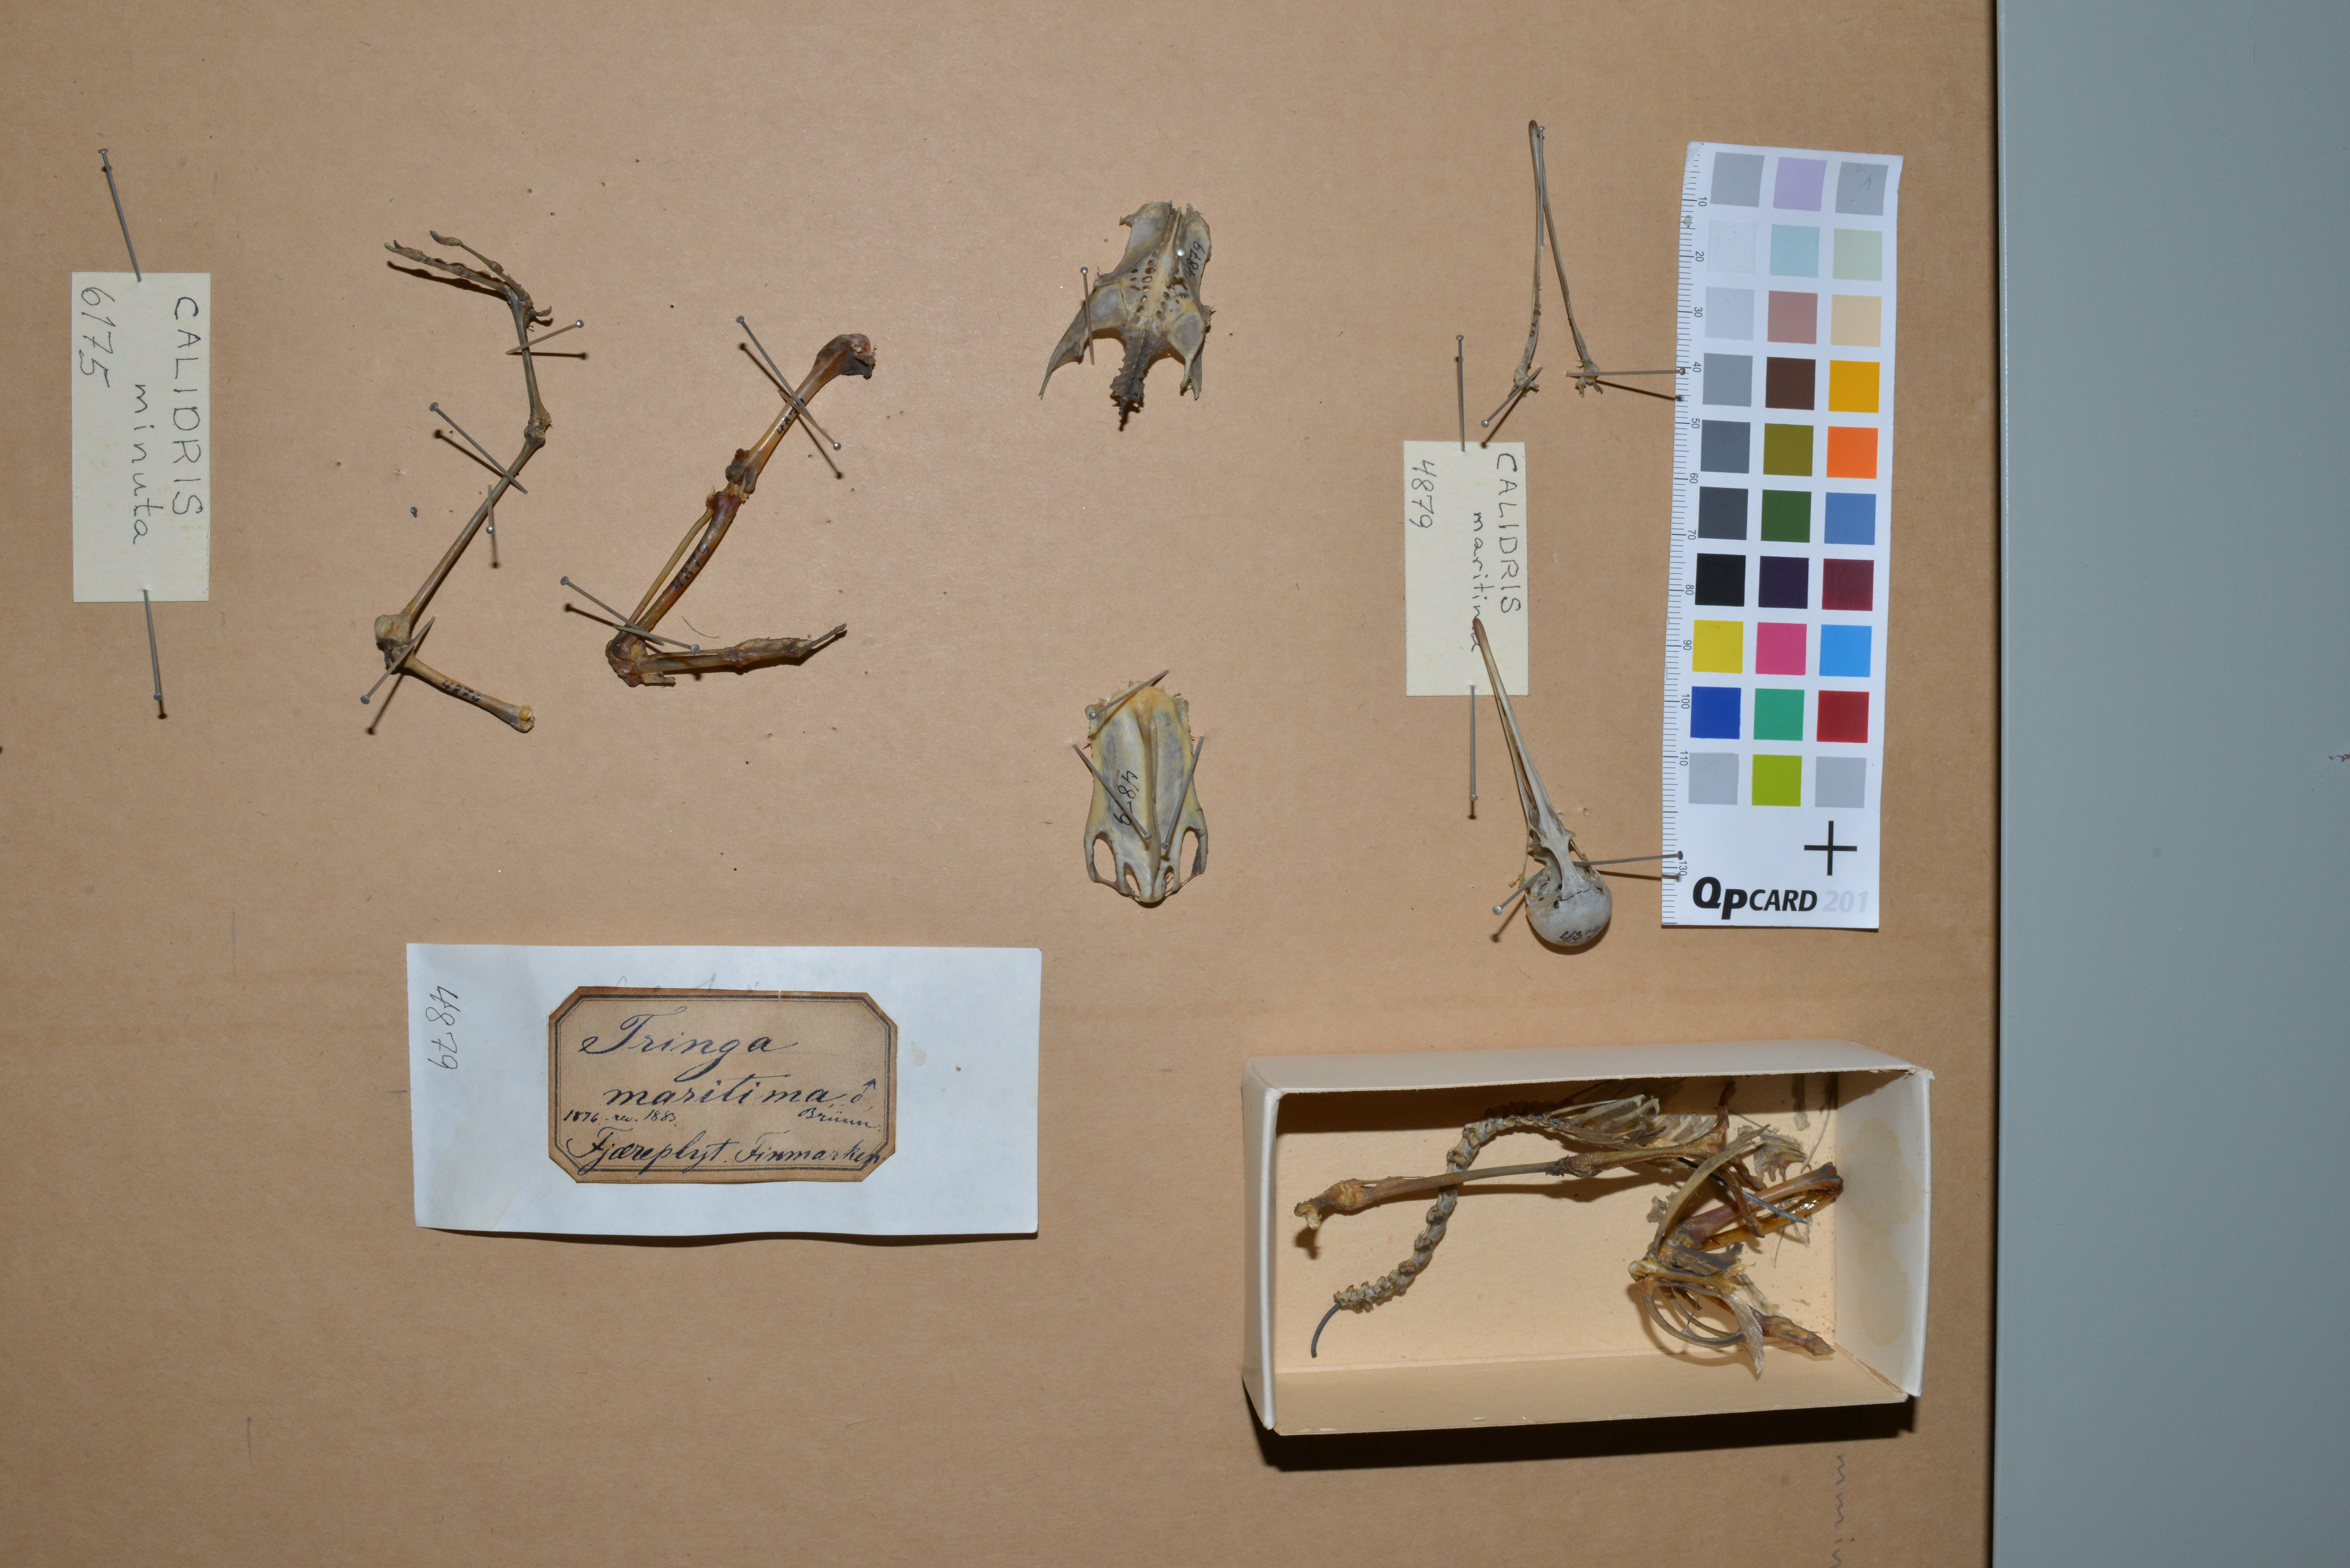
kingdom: Animalia
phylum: Chordata
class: Aves
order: Charadriiformes
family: Scolopacidae
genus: Calidris
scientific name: Calidris maritima
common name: Purple sandpiper
